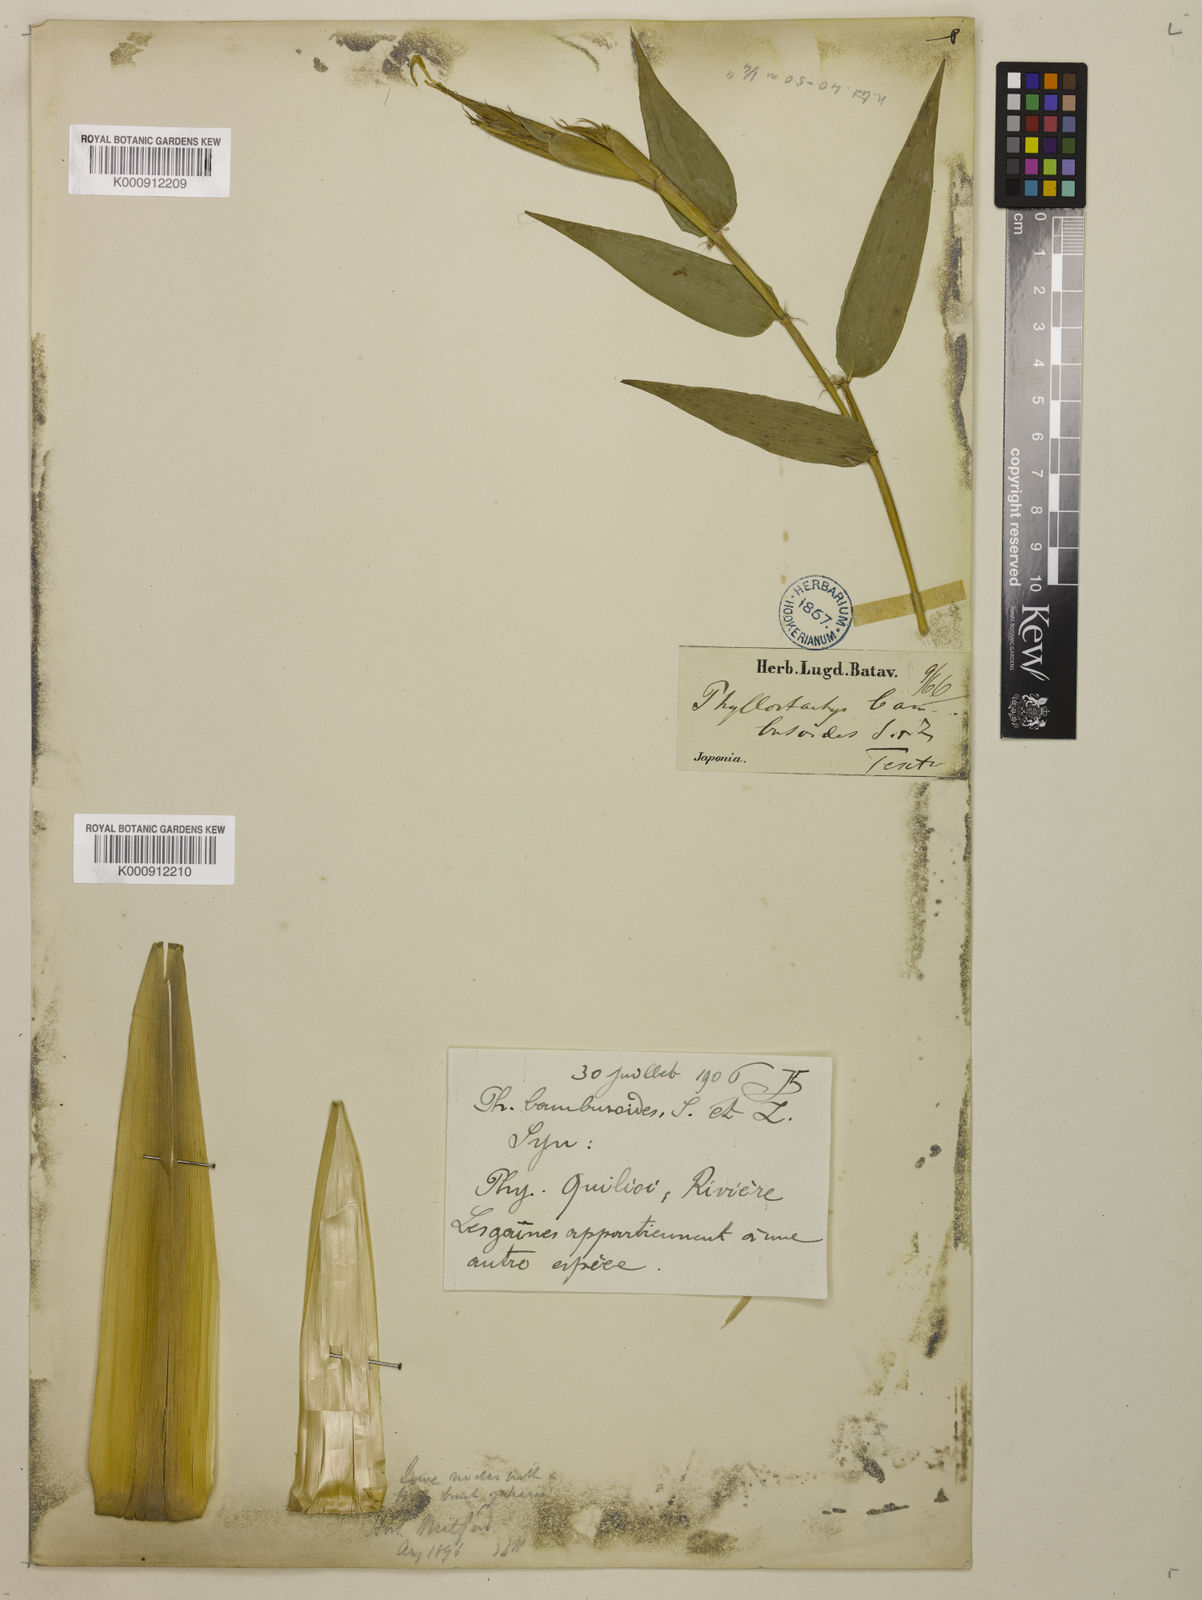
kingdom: Plantae
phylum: Tracheophyta
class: Liliopsida
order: Poales
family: Poaceae
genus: Phyllostachys
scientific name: Phyllostachys reticulata
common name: Bamboo
